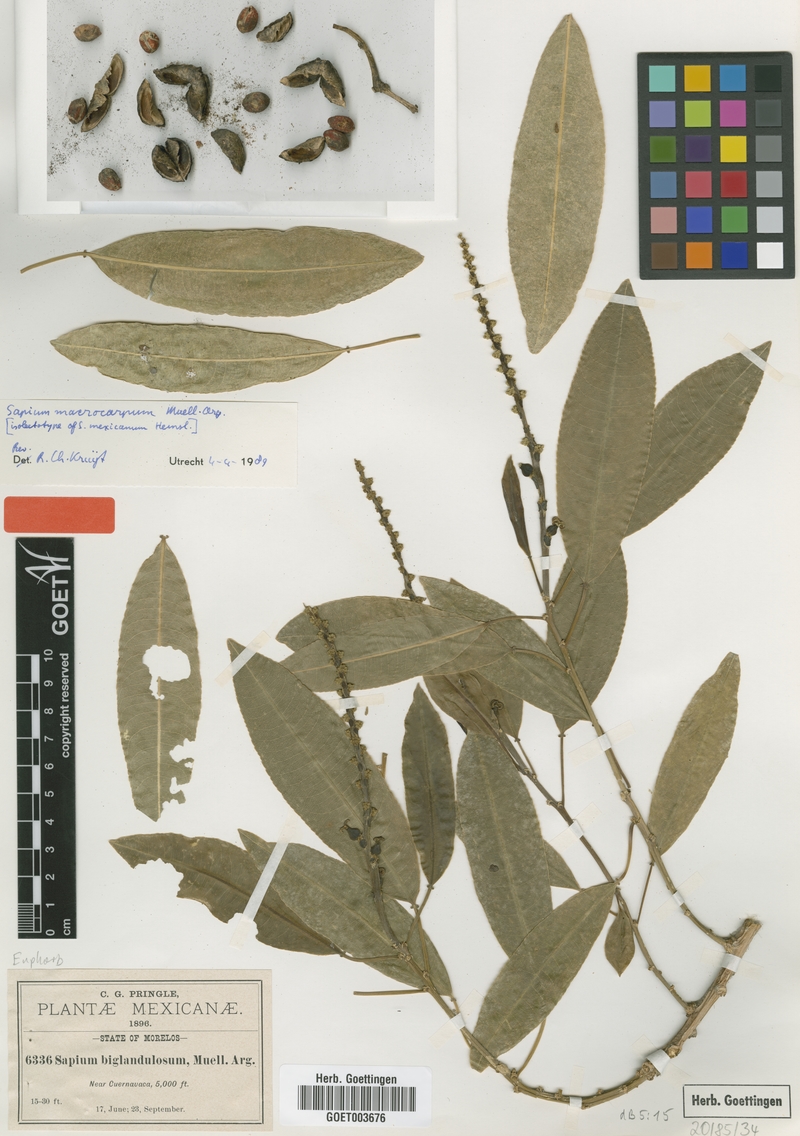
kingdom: Plantae
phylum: Tracheophyta
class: Magnoliopsida
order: Malpighiales
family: Euphorbiaceae
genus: Sapium
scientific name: Sapium macrocarpum
